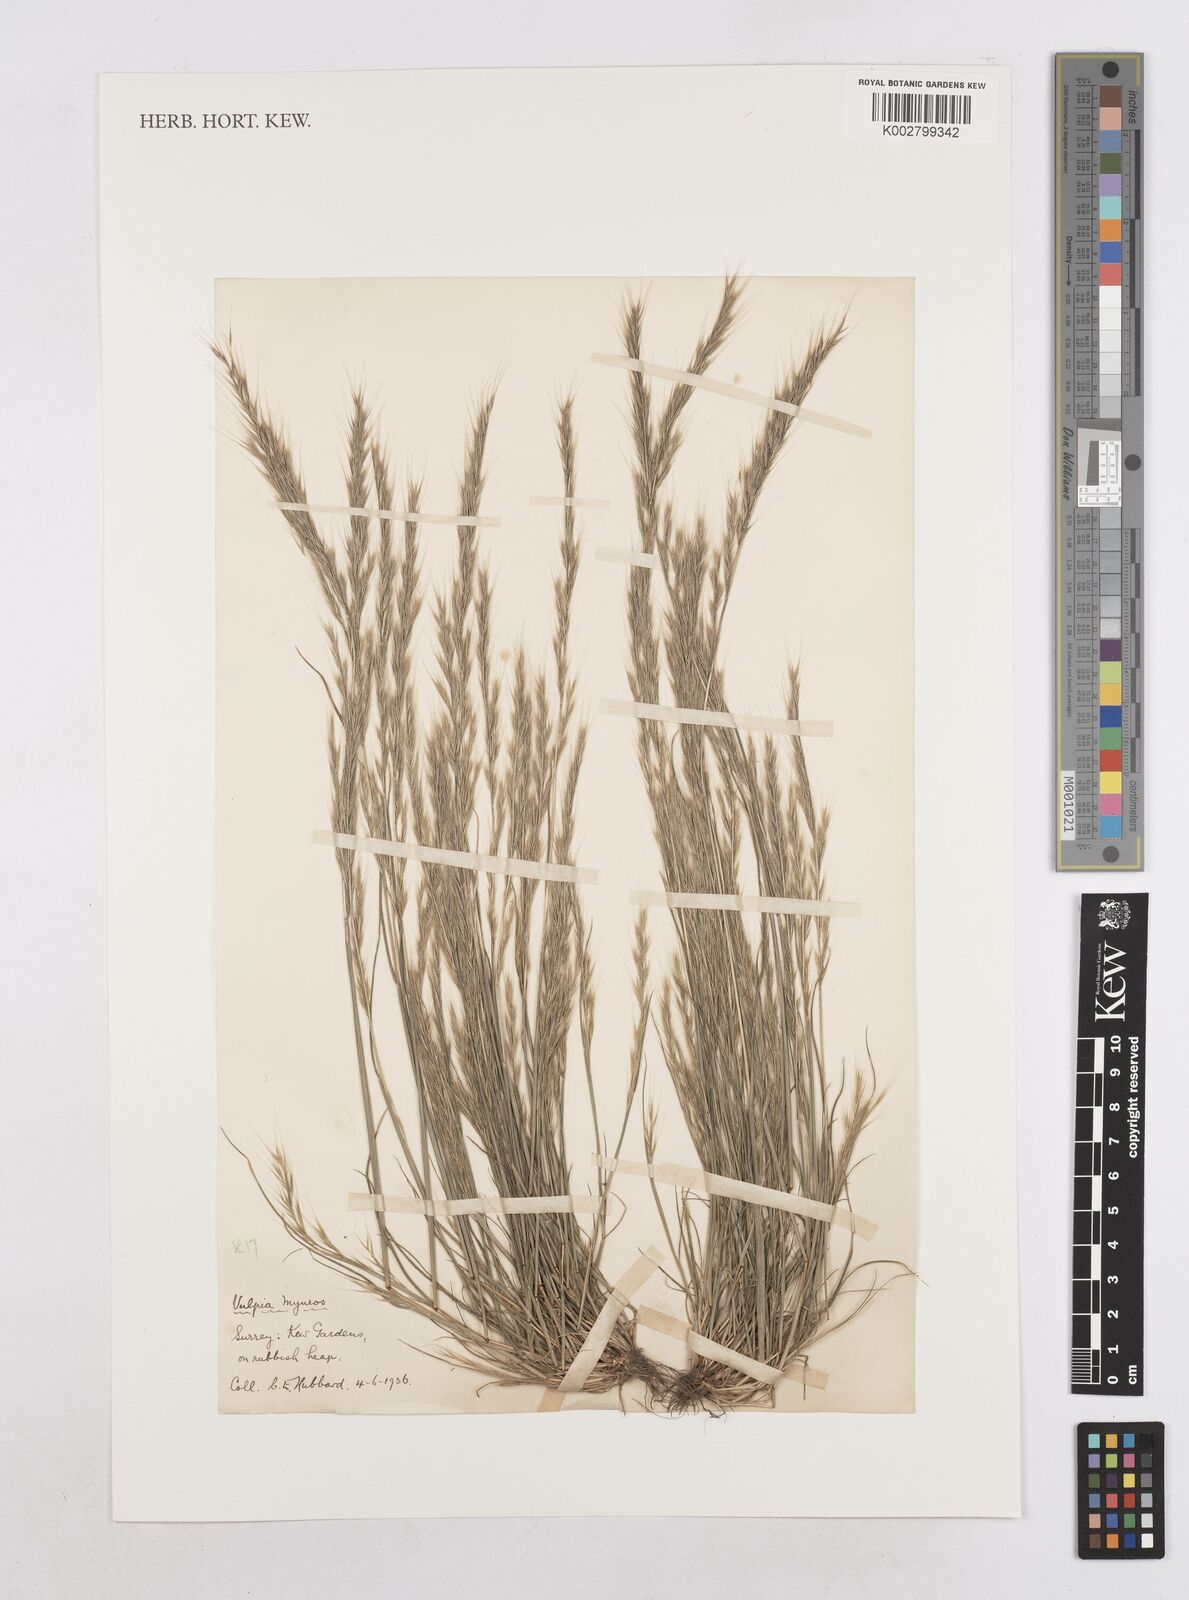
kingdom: Plantae
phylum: Tracheophyta
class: Liliopsida
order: Poales
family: Poaceae
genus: Festuca
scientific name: Festuca myuros
